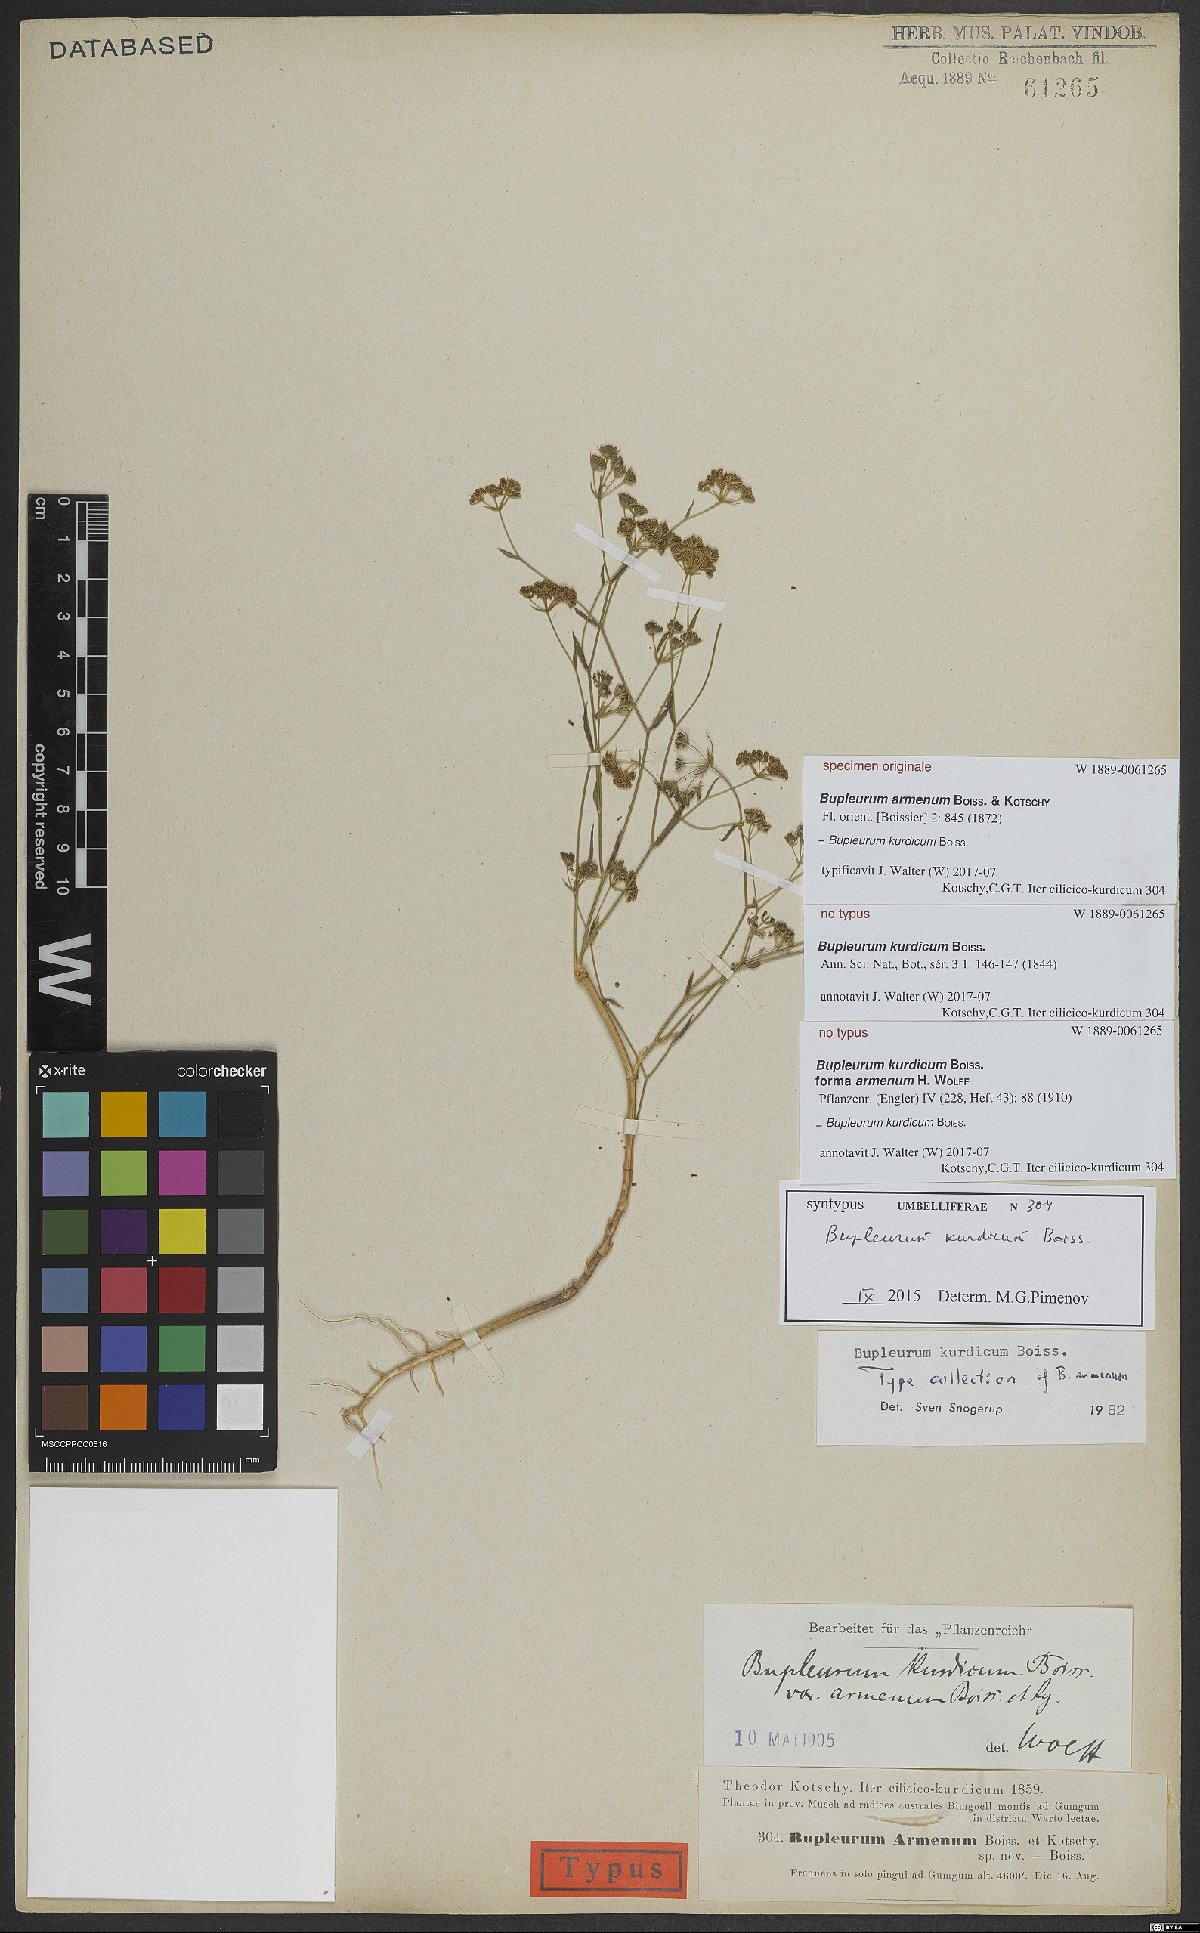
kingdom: Plantae
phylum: Tracheophyta
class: Magnoliopsida
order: Apiales
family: Apiaceae
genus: Bupleurum
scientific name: Bupleurum kurdicum
